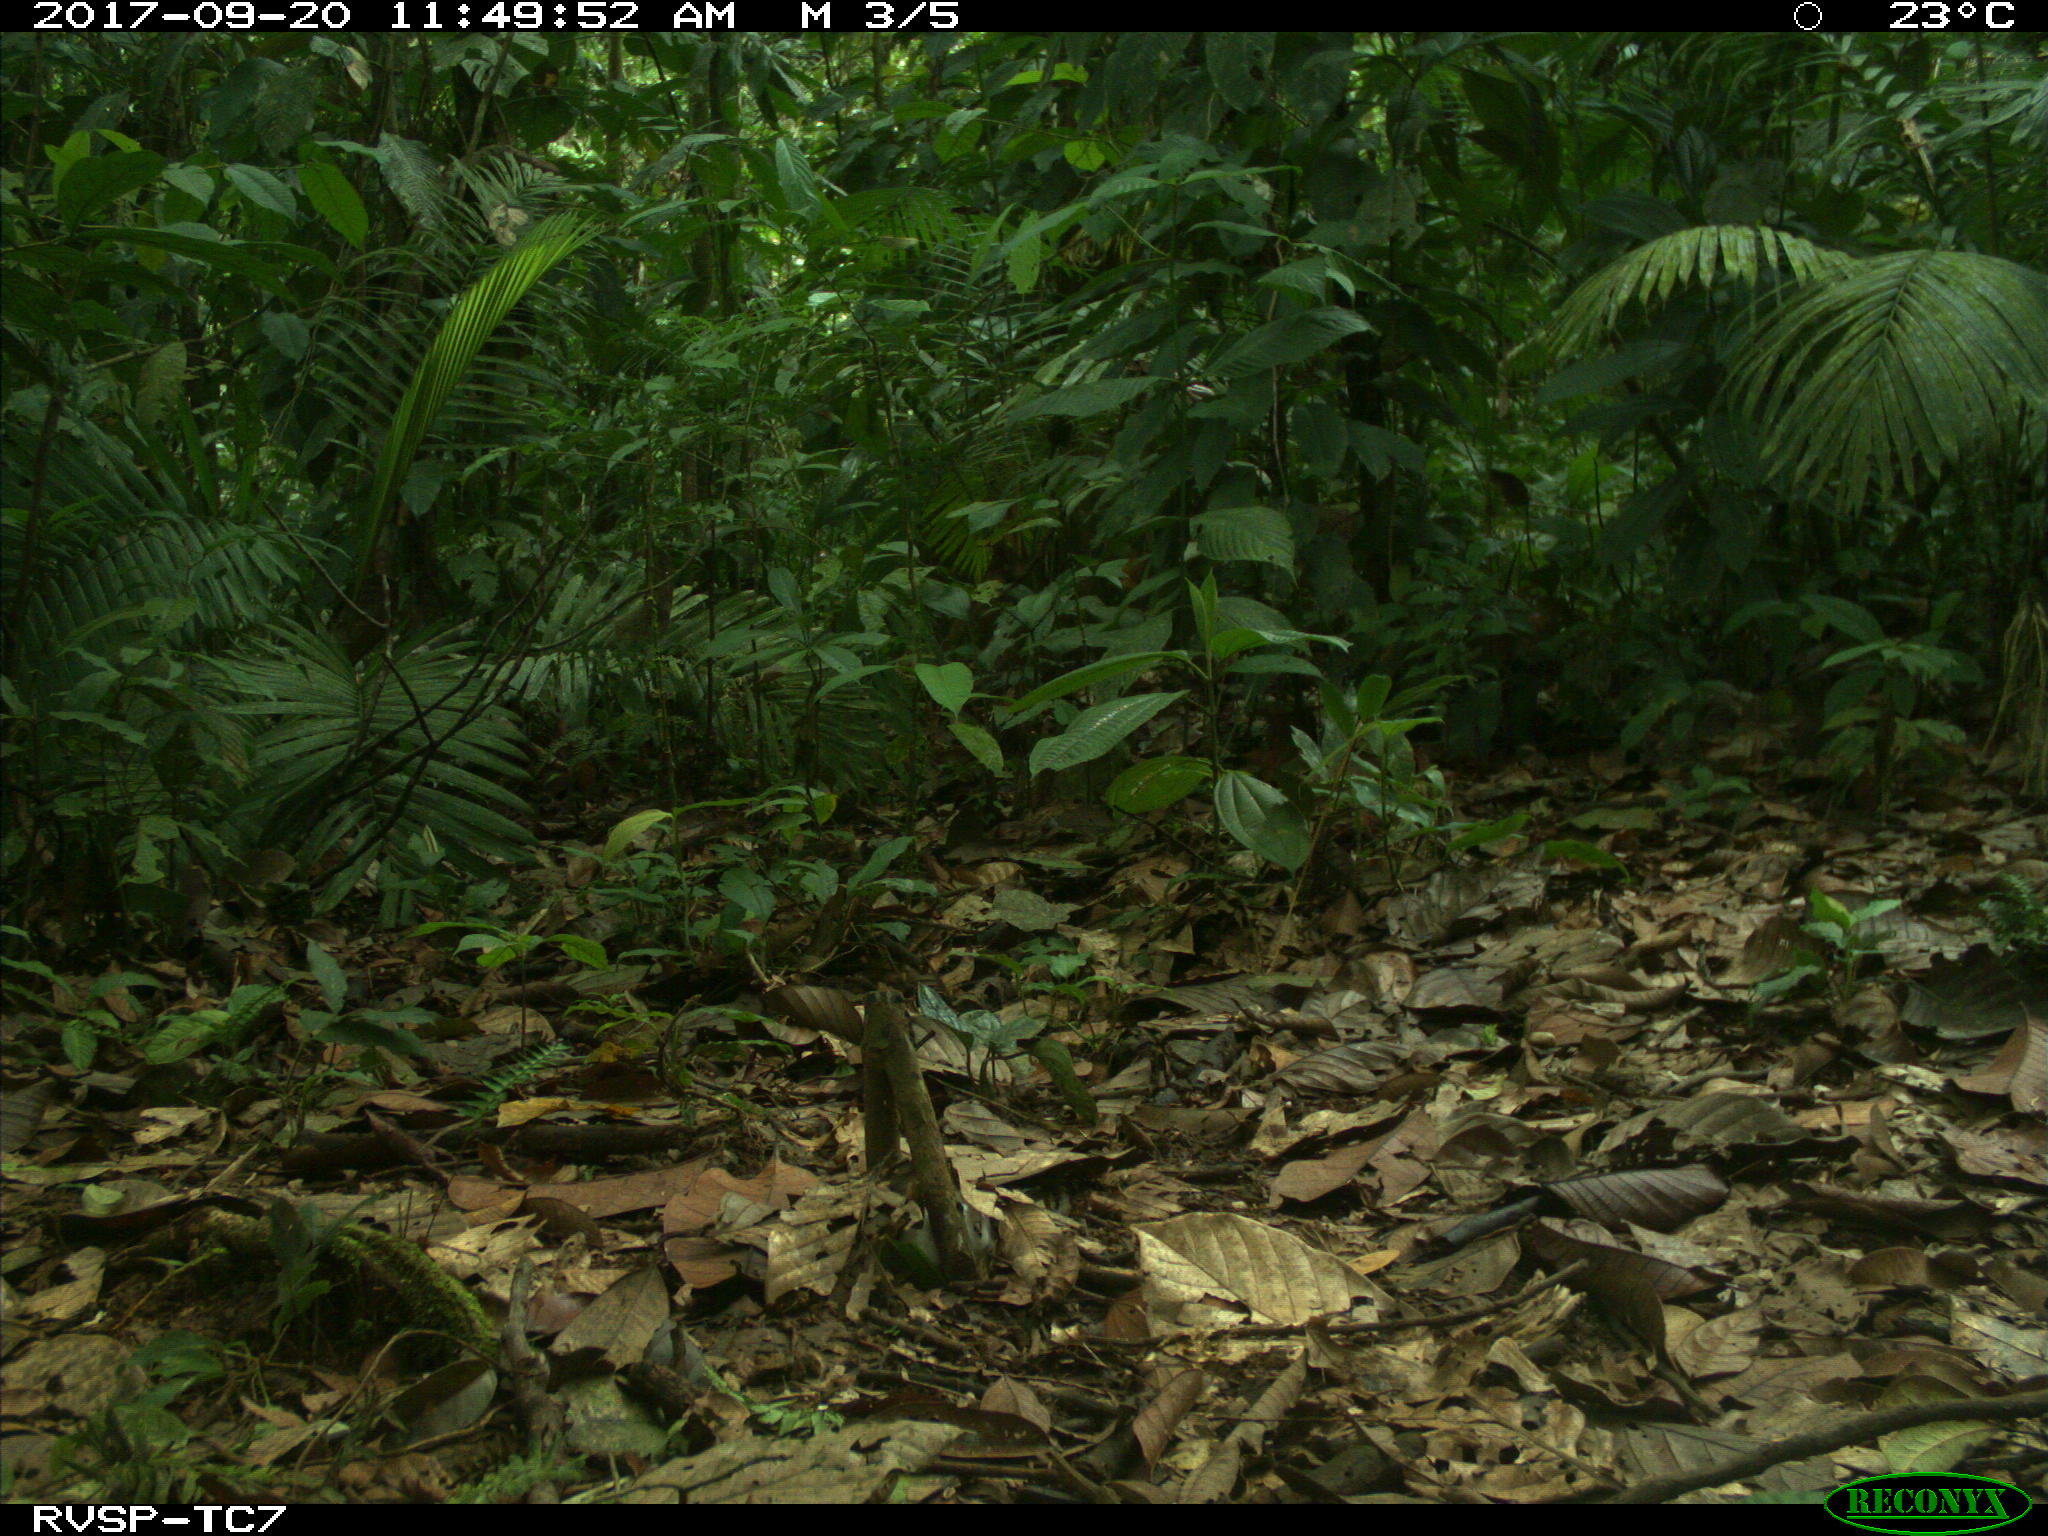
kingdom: Animalia
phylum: Chordata
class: Mammalia
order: Rodentia
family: Dasyproctidae
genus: Dasyprocta
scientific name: Dasyprocta punctata
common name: Central american agouti
